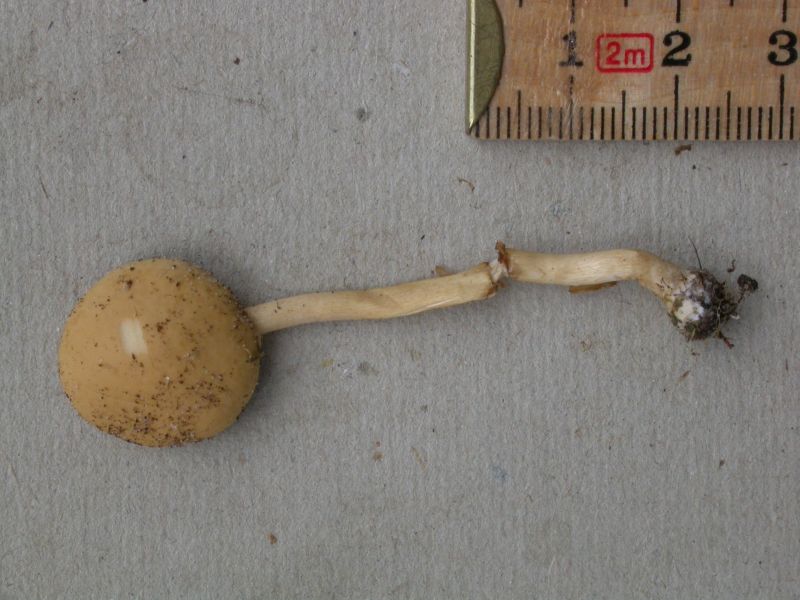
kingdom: Fungi
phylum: Basidiomycota
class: Agaricomycetes
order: Agaricales
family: Strophariaceae
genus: Agrocybe
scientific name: Agrocybe pediades
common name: almindelig agerhat
